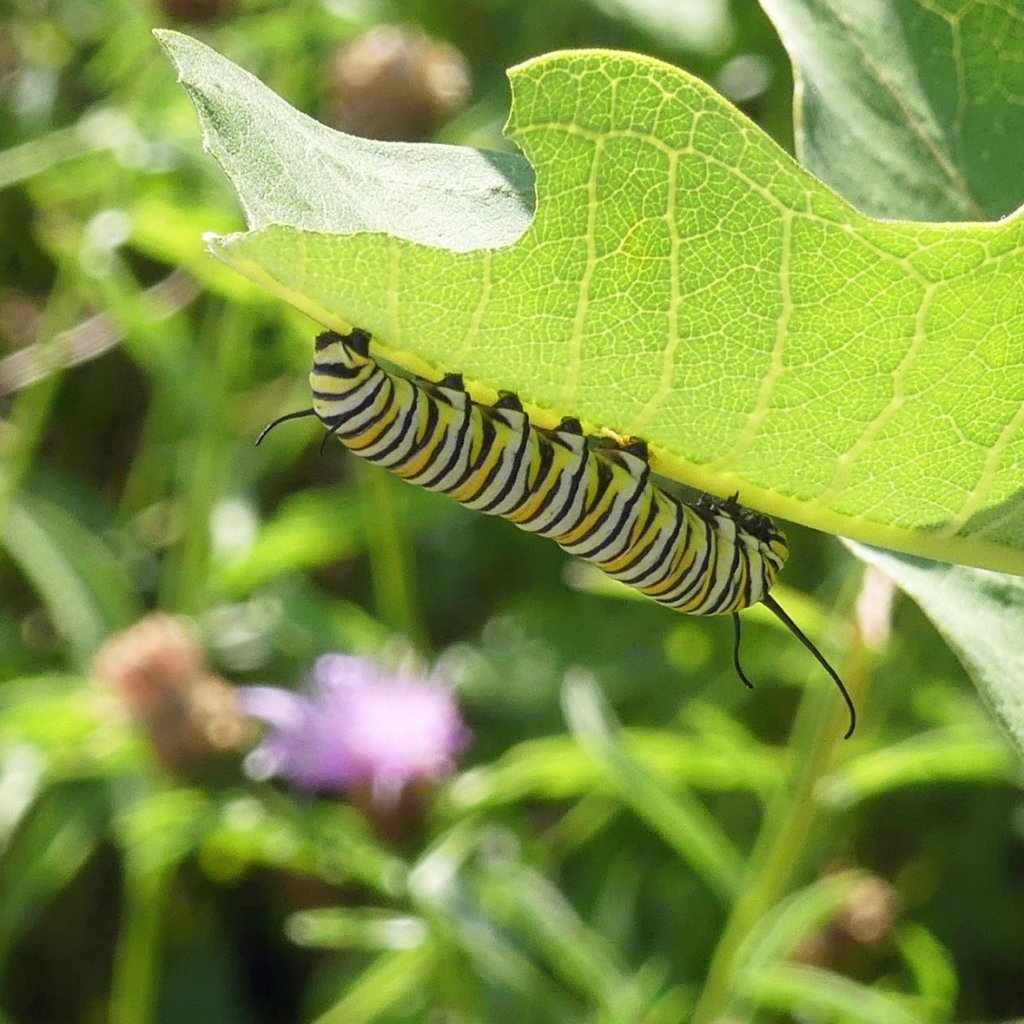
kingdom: Animalia
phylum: Arthropoda
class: Insecta
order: Lepidoptera
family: Nymphalidae
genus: Danaus
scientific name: Danaus plexippus
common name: Monarch
